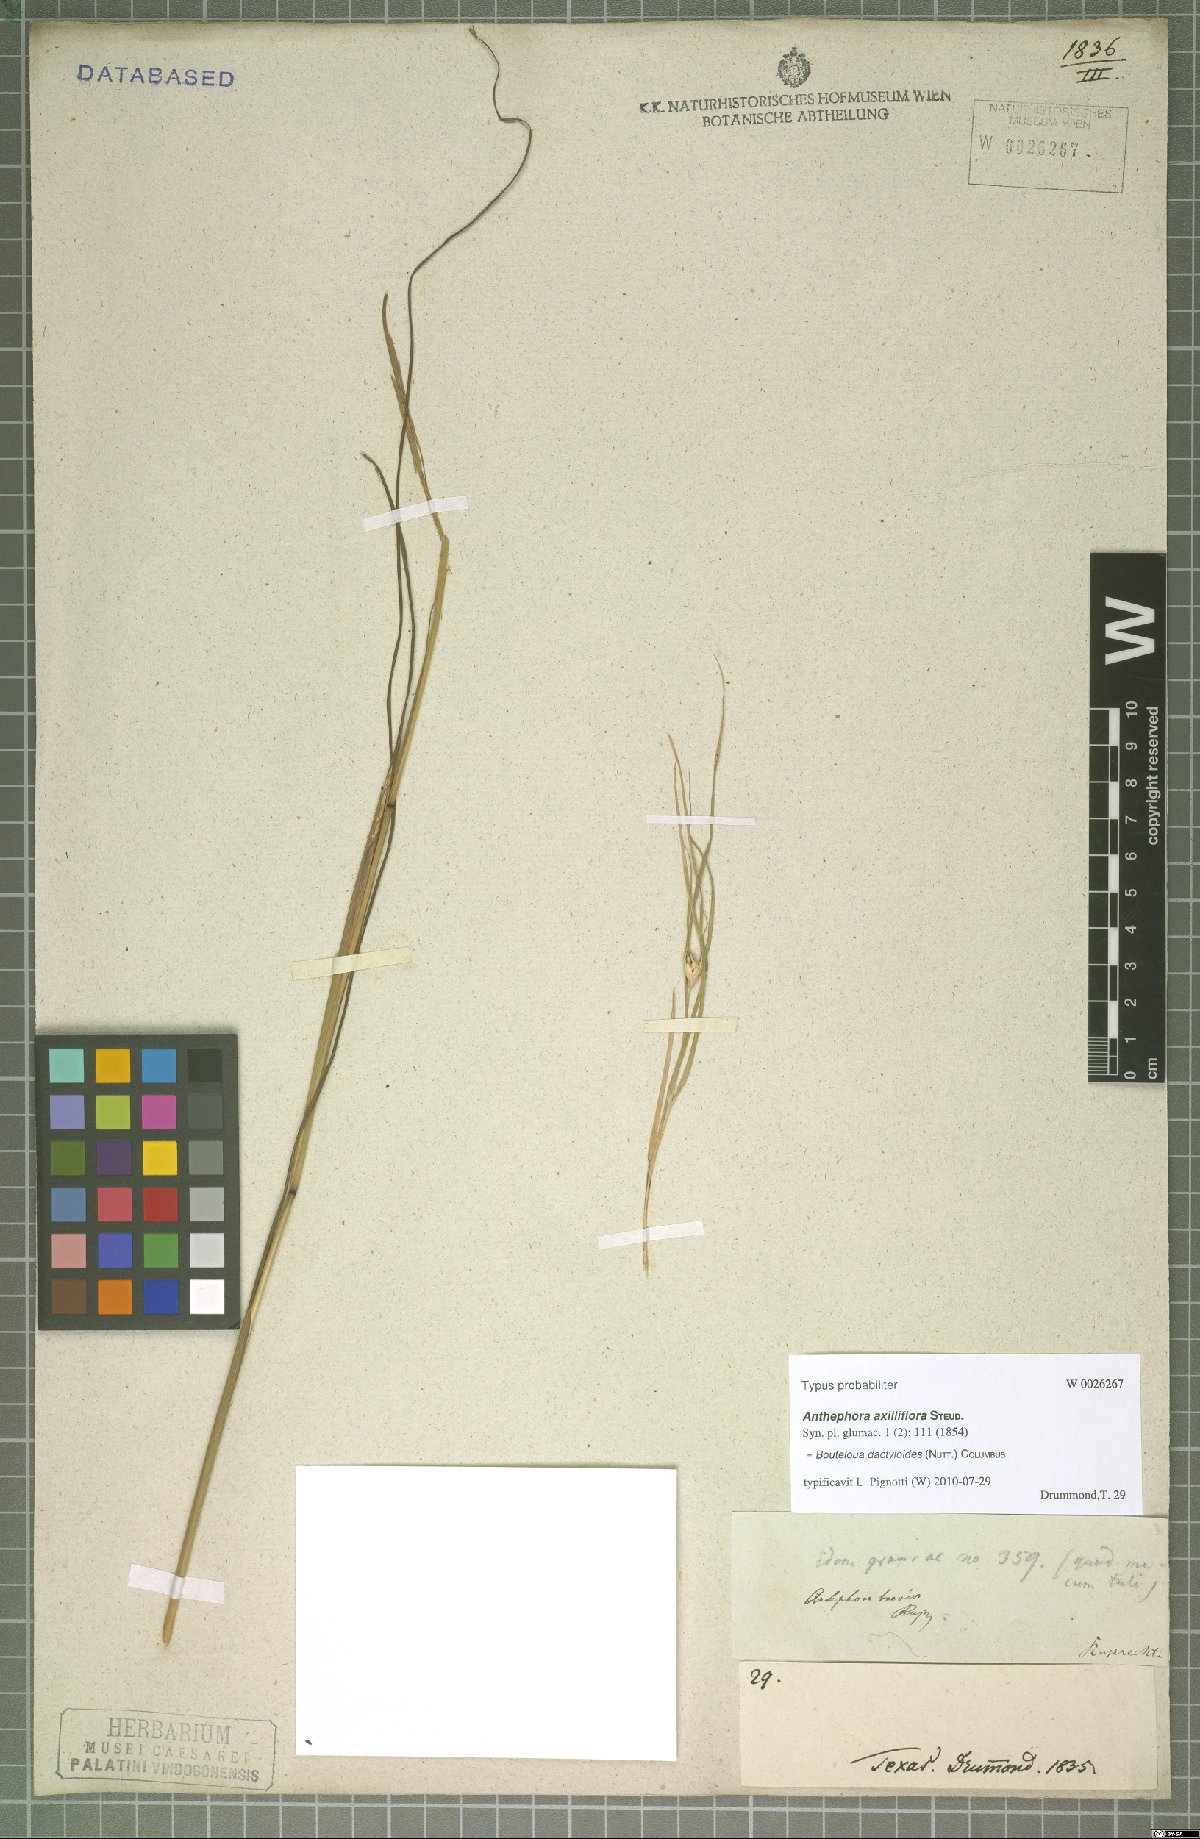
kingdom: Plantae
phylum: Tracheophyta
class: Liliopsida
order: Poales
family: Poaceae
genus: Bouteloua
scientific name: Bouteloua dactyloides
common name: Buffalo grass
